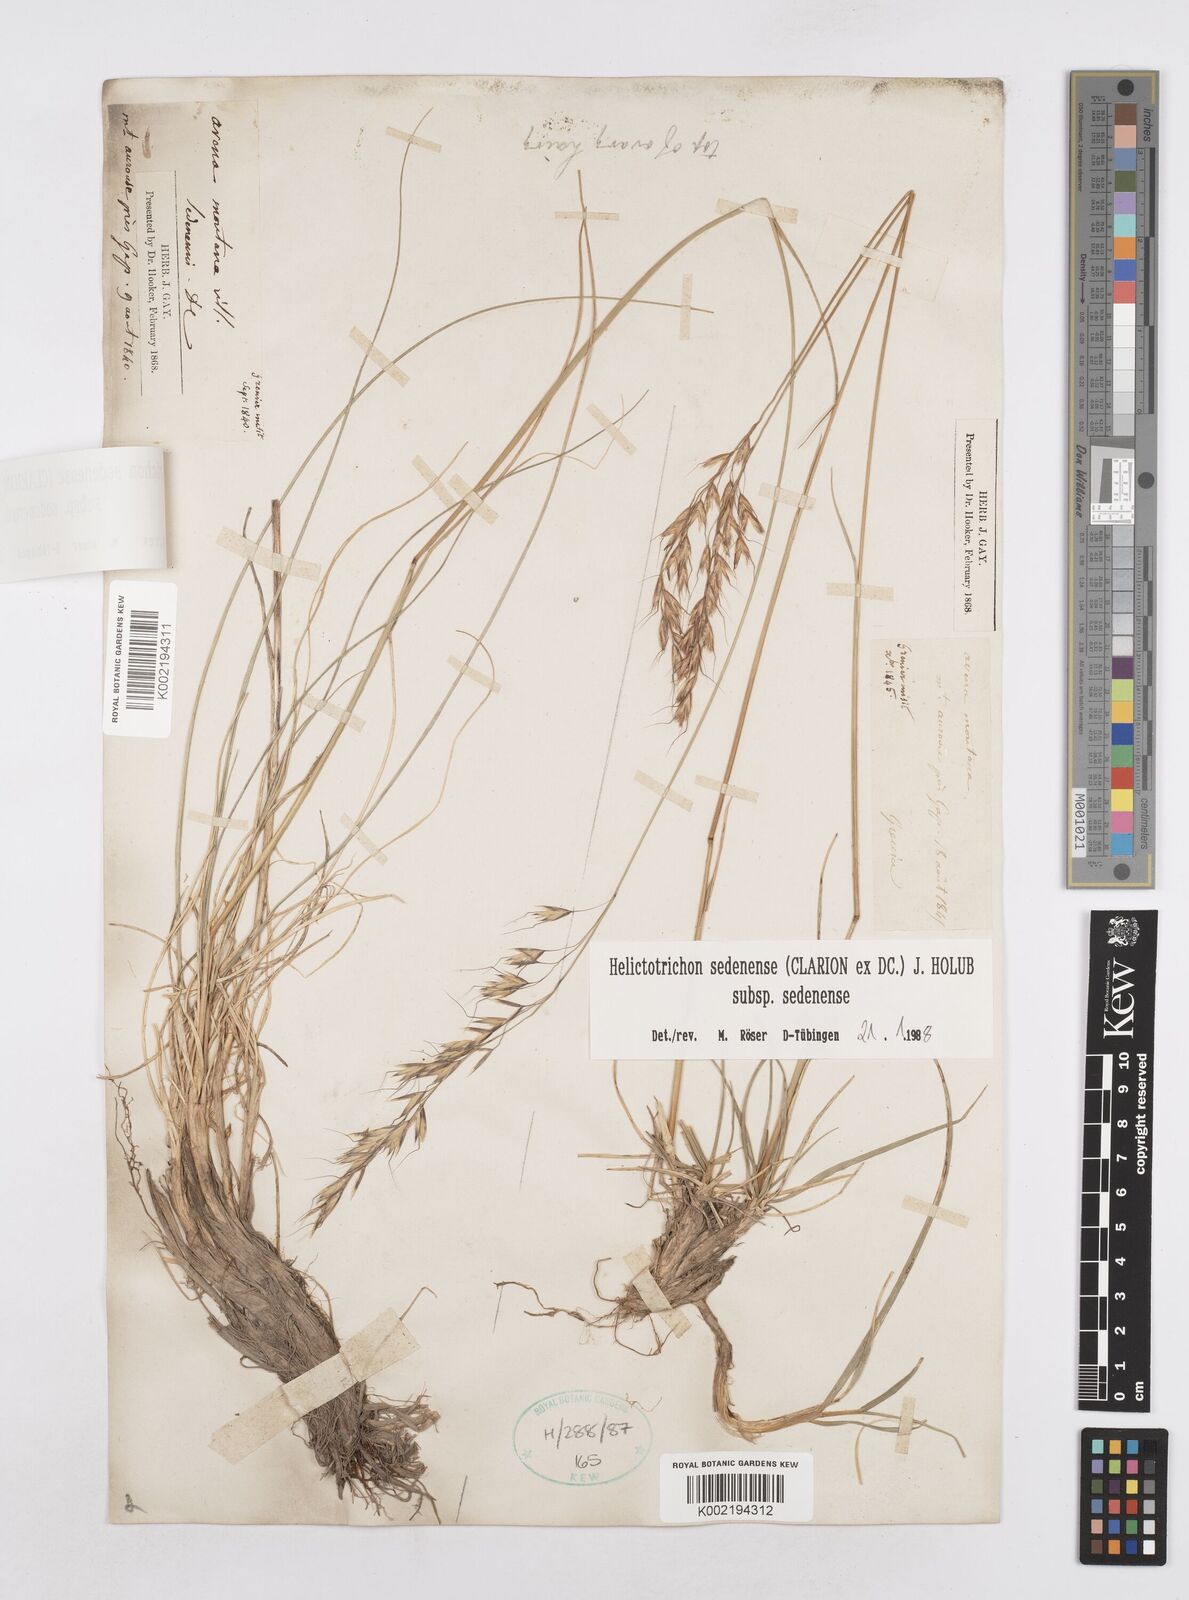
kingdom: Plantae
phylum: Tracheophyta
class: Liliopsida
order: Poales
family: Poaceae
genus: Helictotrichon
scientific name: Helictotrichon sedenense
